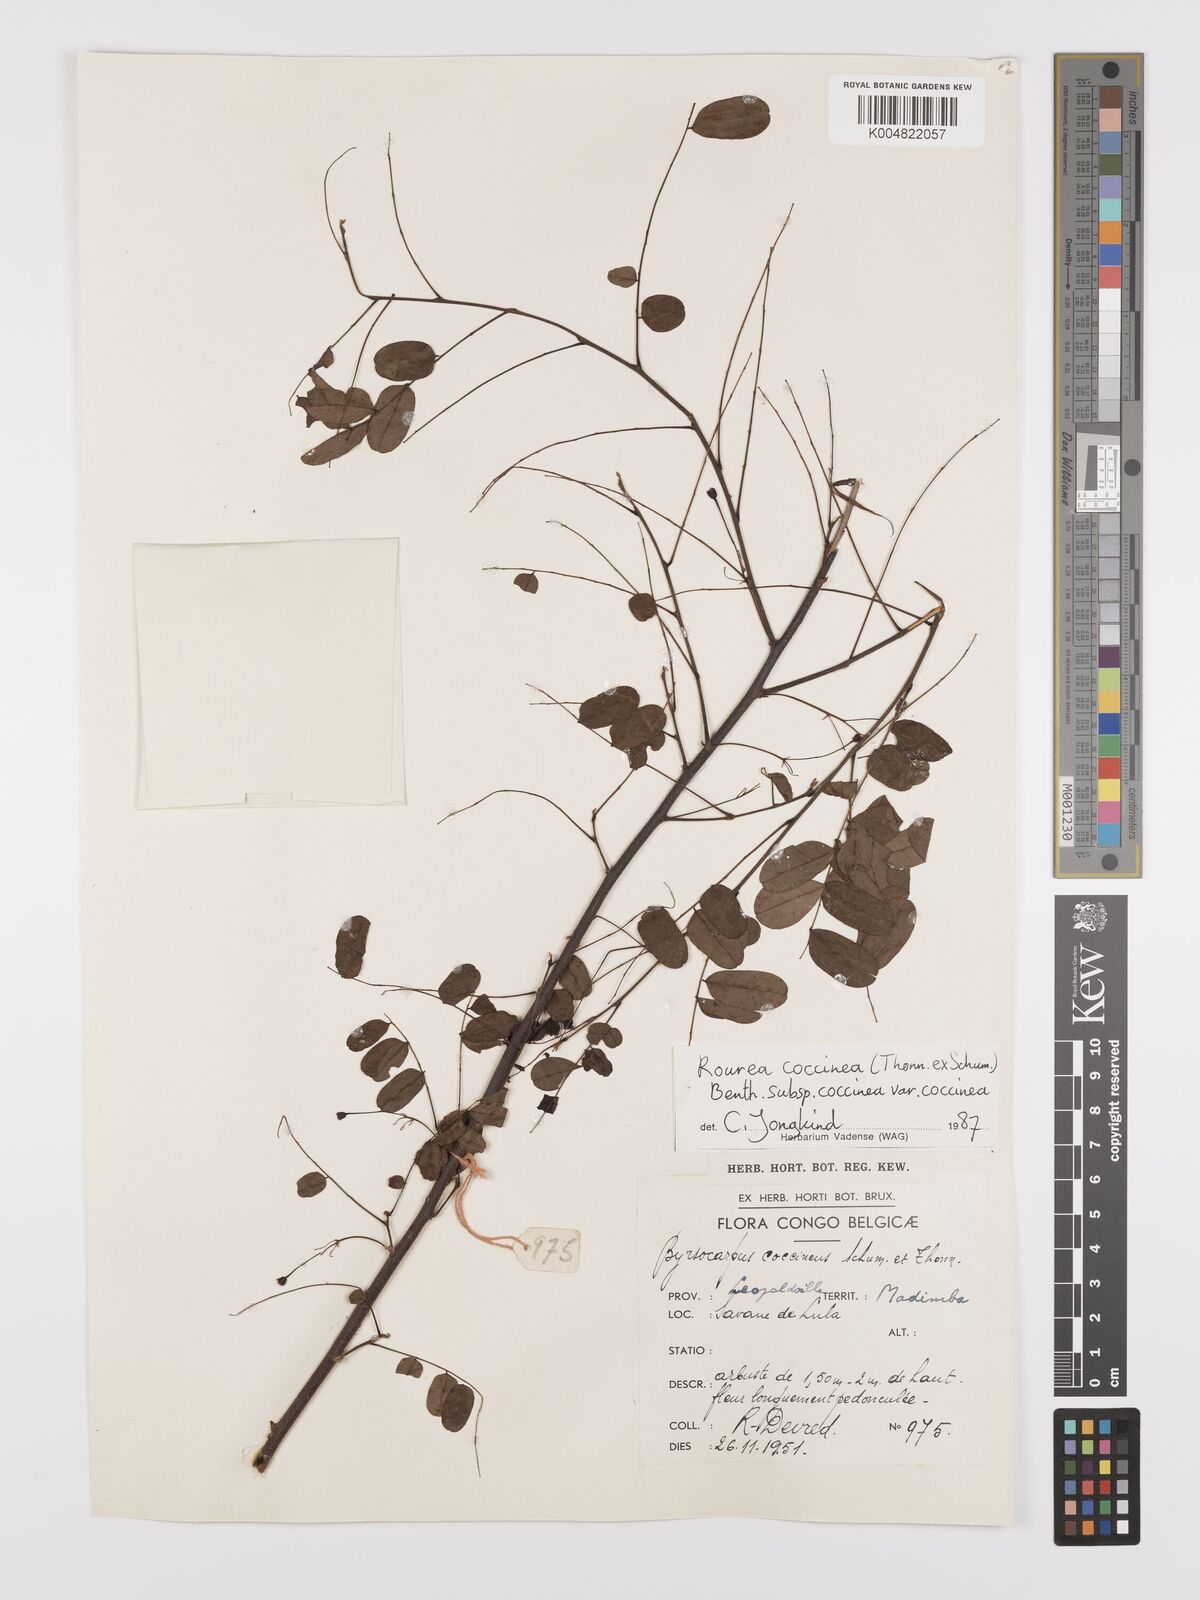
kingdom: Plantae
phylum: Tracheophyta
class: Magnoliopsida
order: Oxalidales
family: Connaraceae
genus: Rourea
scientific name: Rourea coccinea
